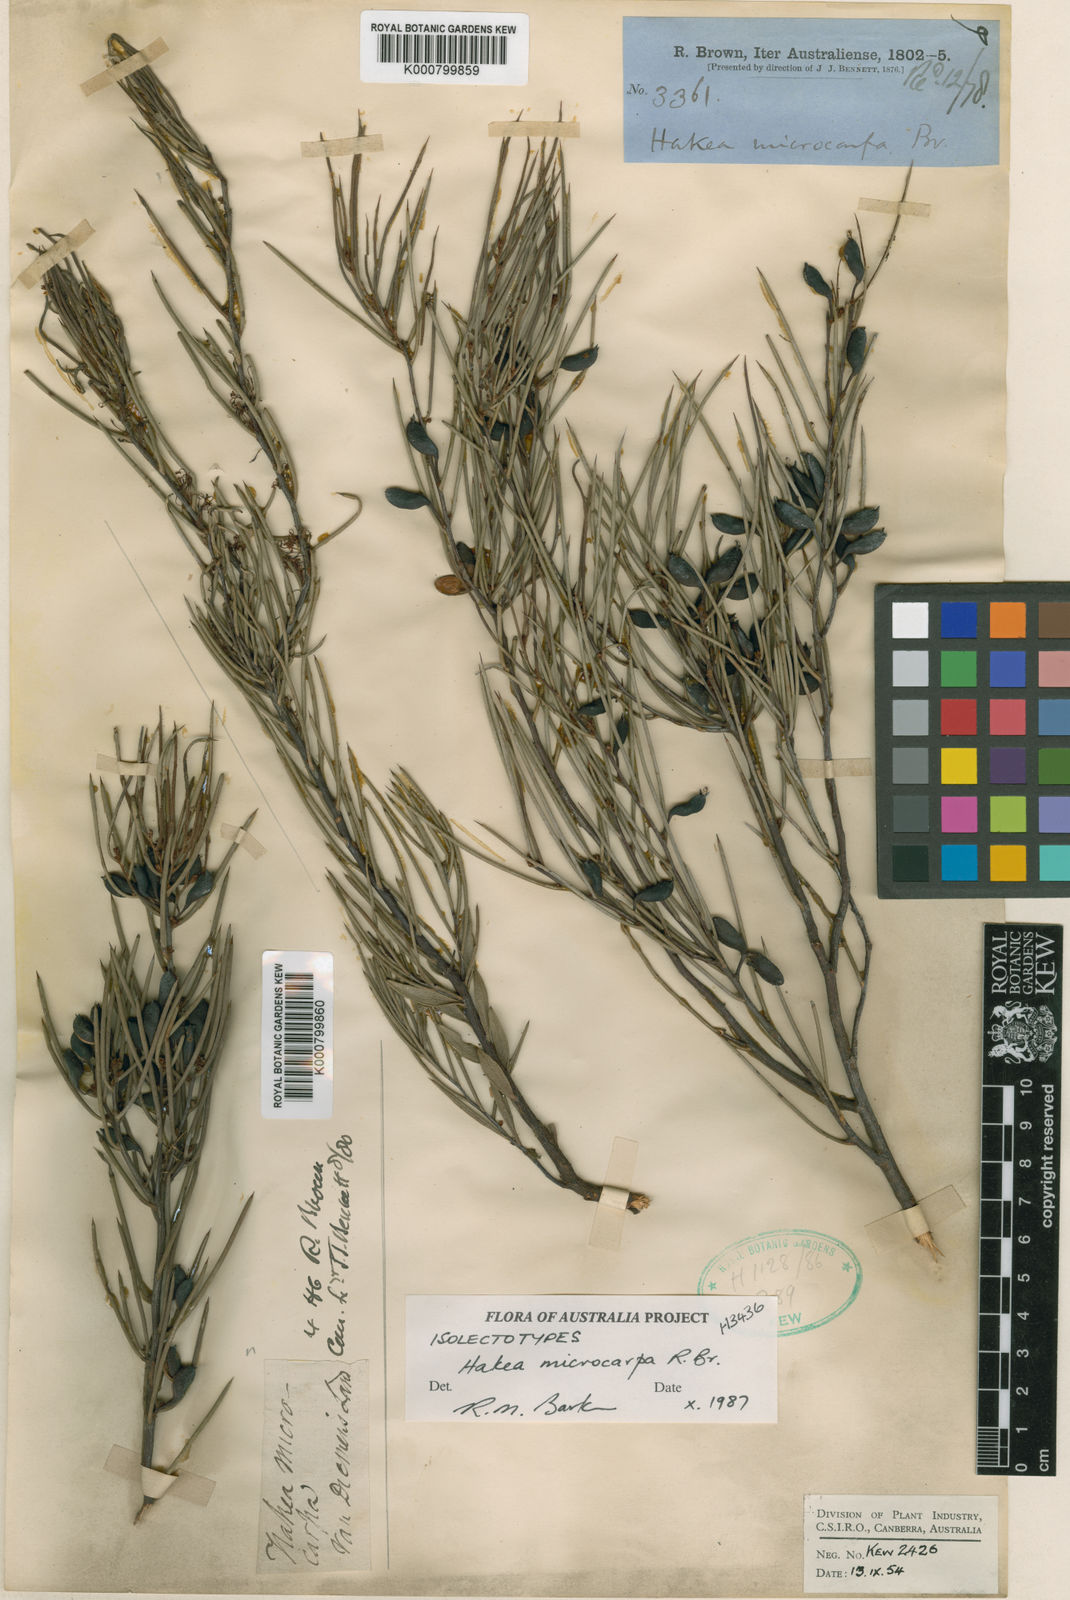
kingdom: Plantae
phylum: Tracheophyta
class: Magnoliopsida
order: Proteales
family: Proteaceae
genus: Hakea
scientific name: Hakea microcarpa
